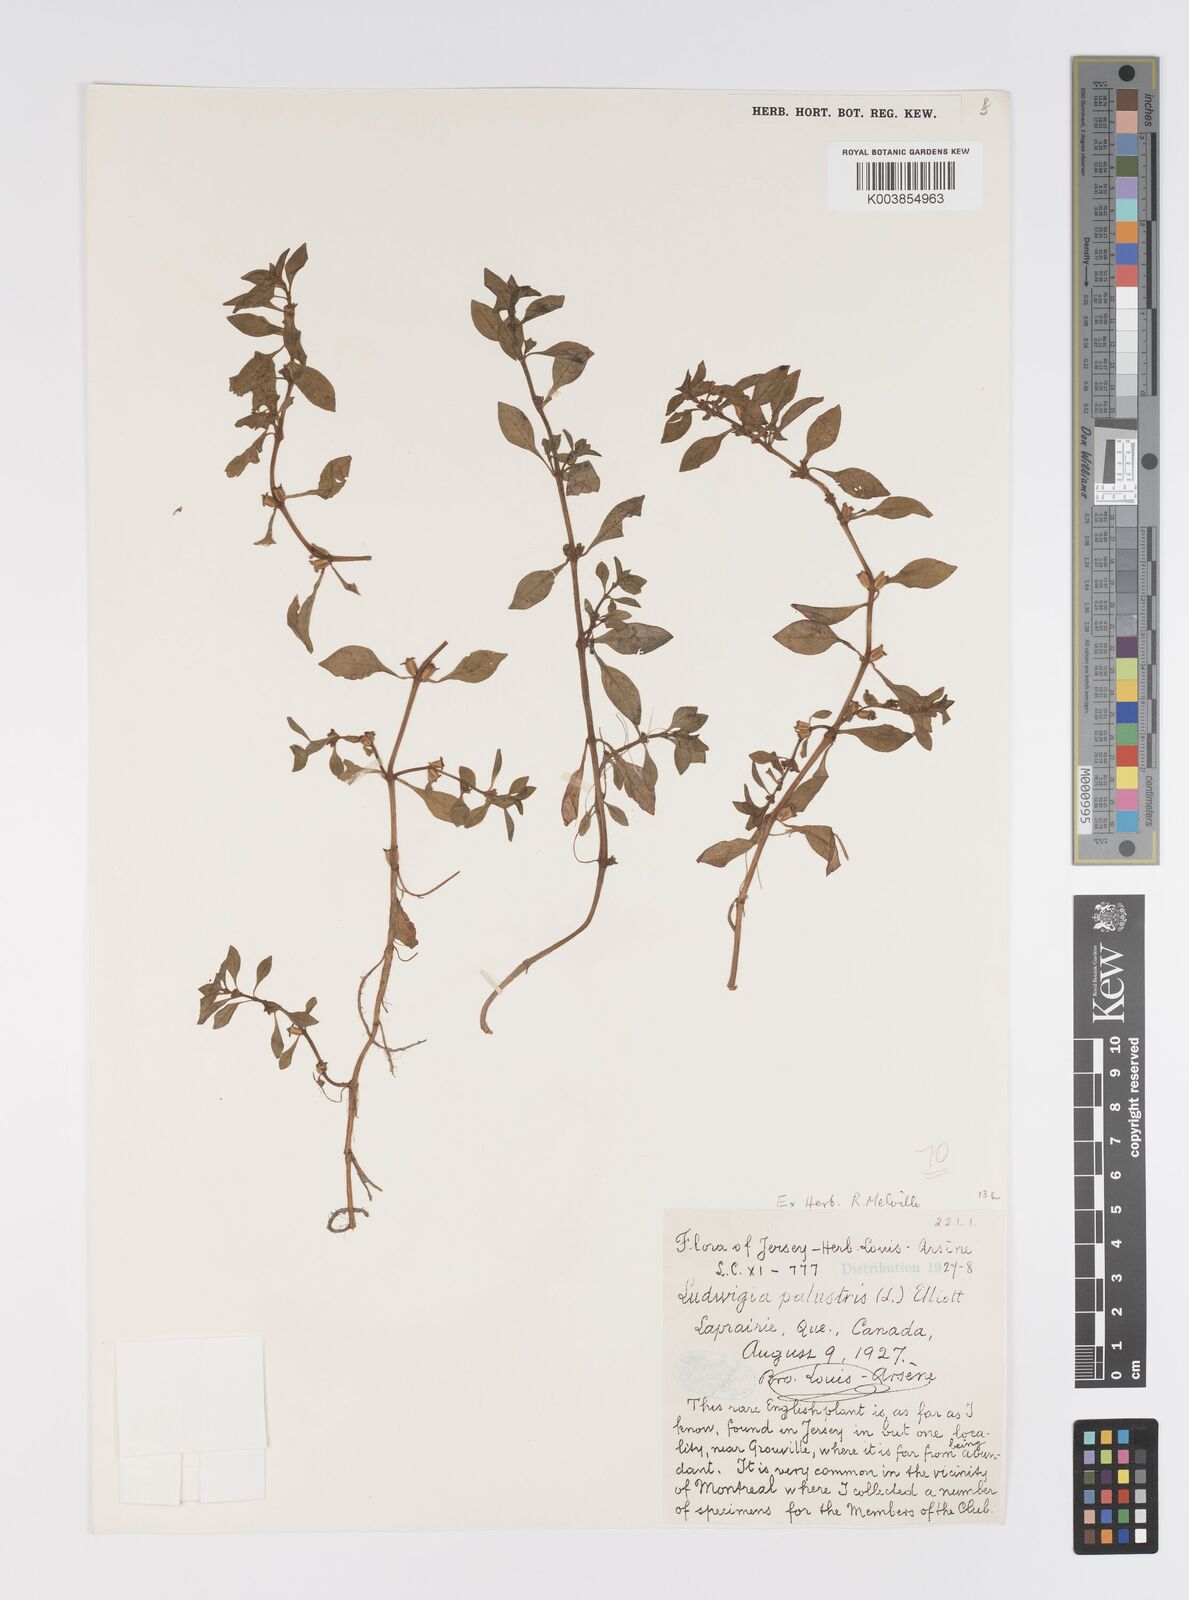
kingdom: Plantae
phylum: Tracheophyta
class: Magnoliopsida
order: Myrtales
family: Onagraceae
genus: Ludwigia
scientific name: Ludwigia palustris
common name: Hampshire-purslane
